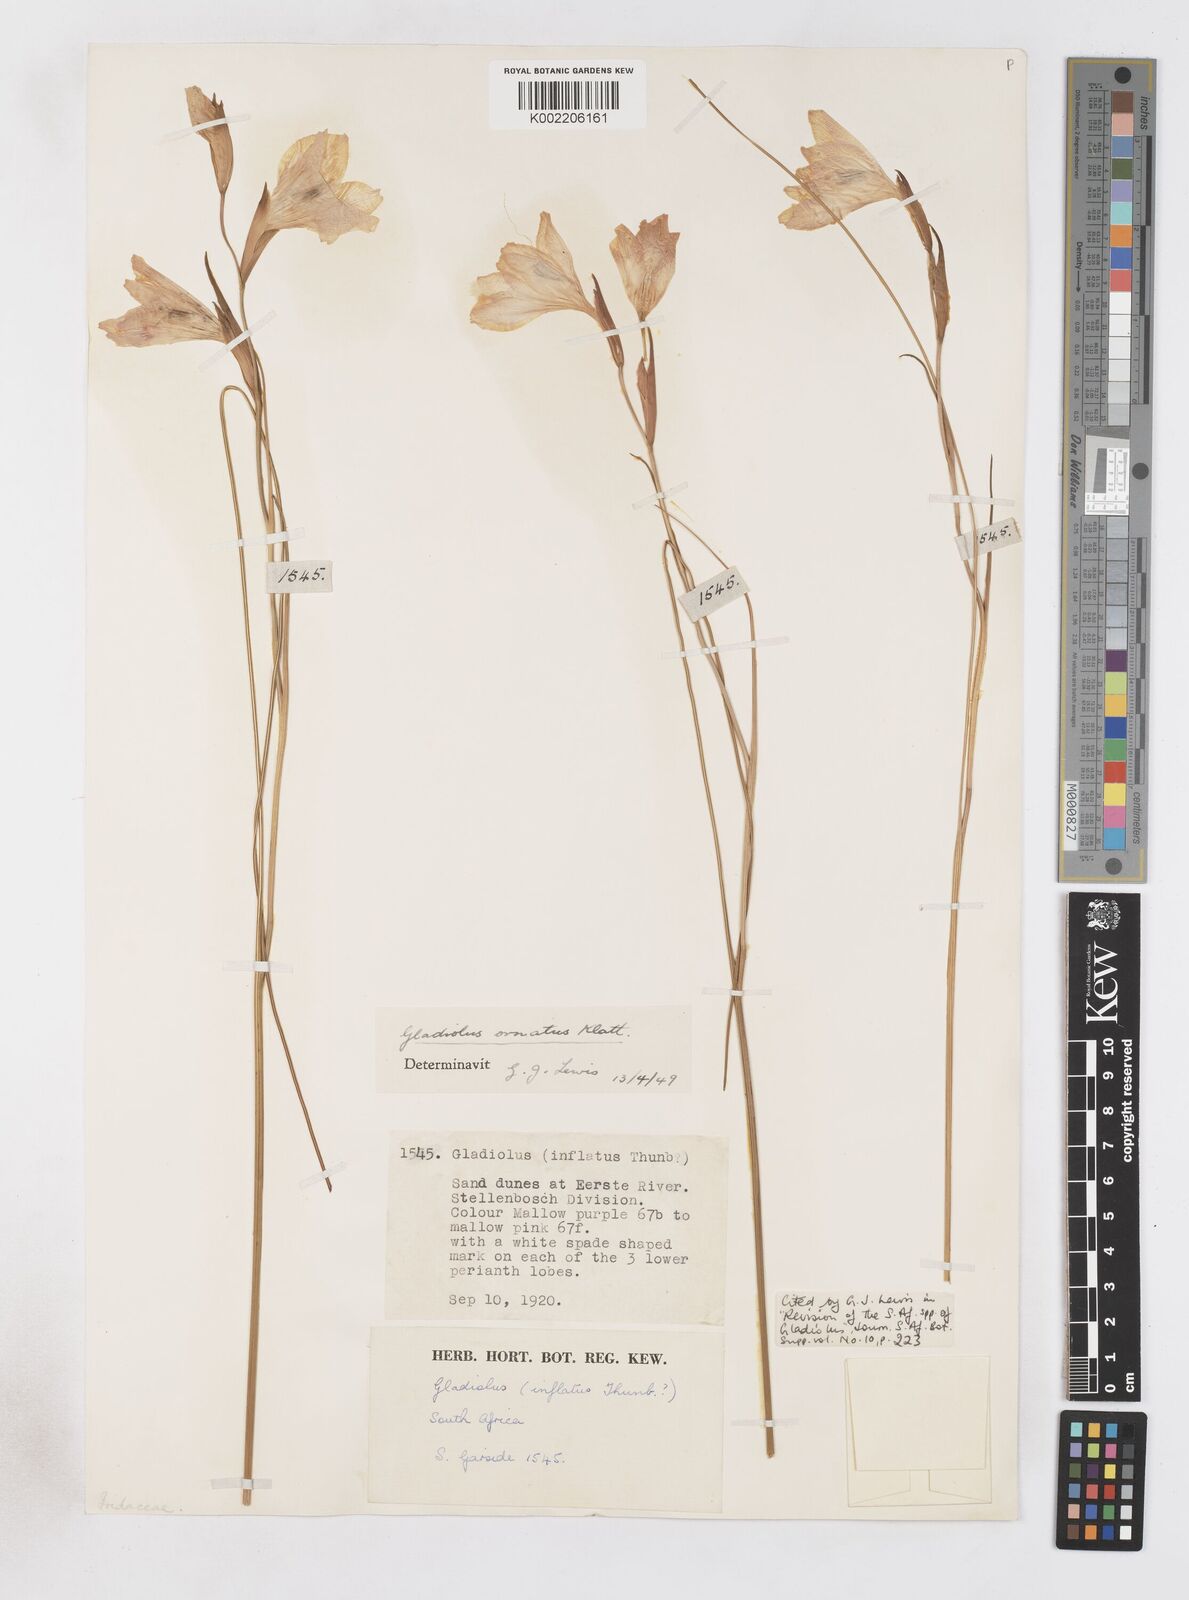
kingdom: Plantae
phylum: Tracheophyta
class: Liliopsida
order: Asparagales
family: Iridaceae
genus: Gladiolus
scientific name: Gladiolus ornatus
